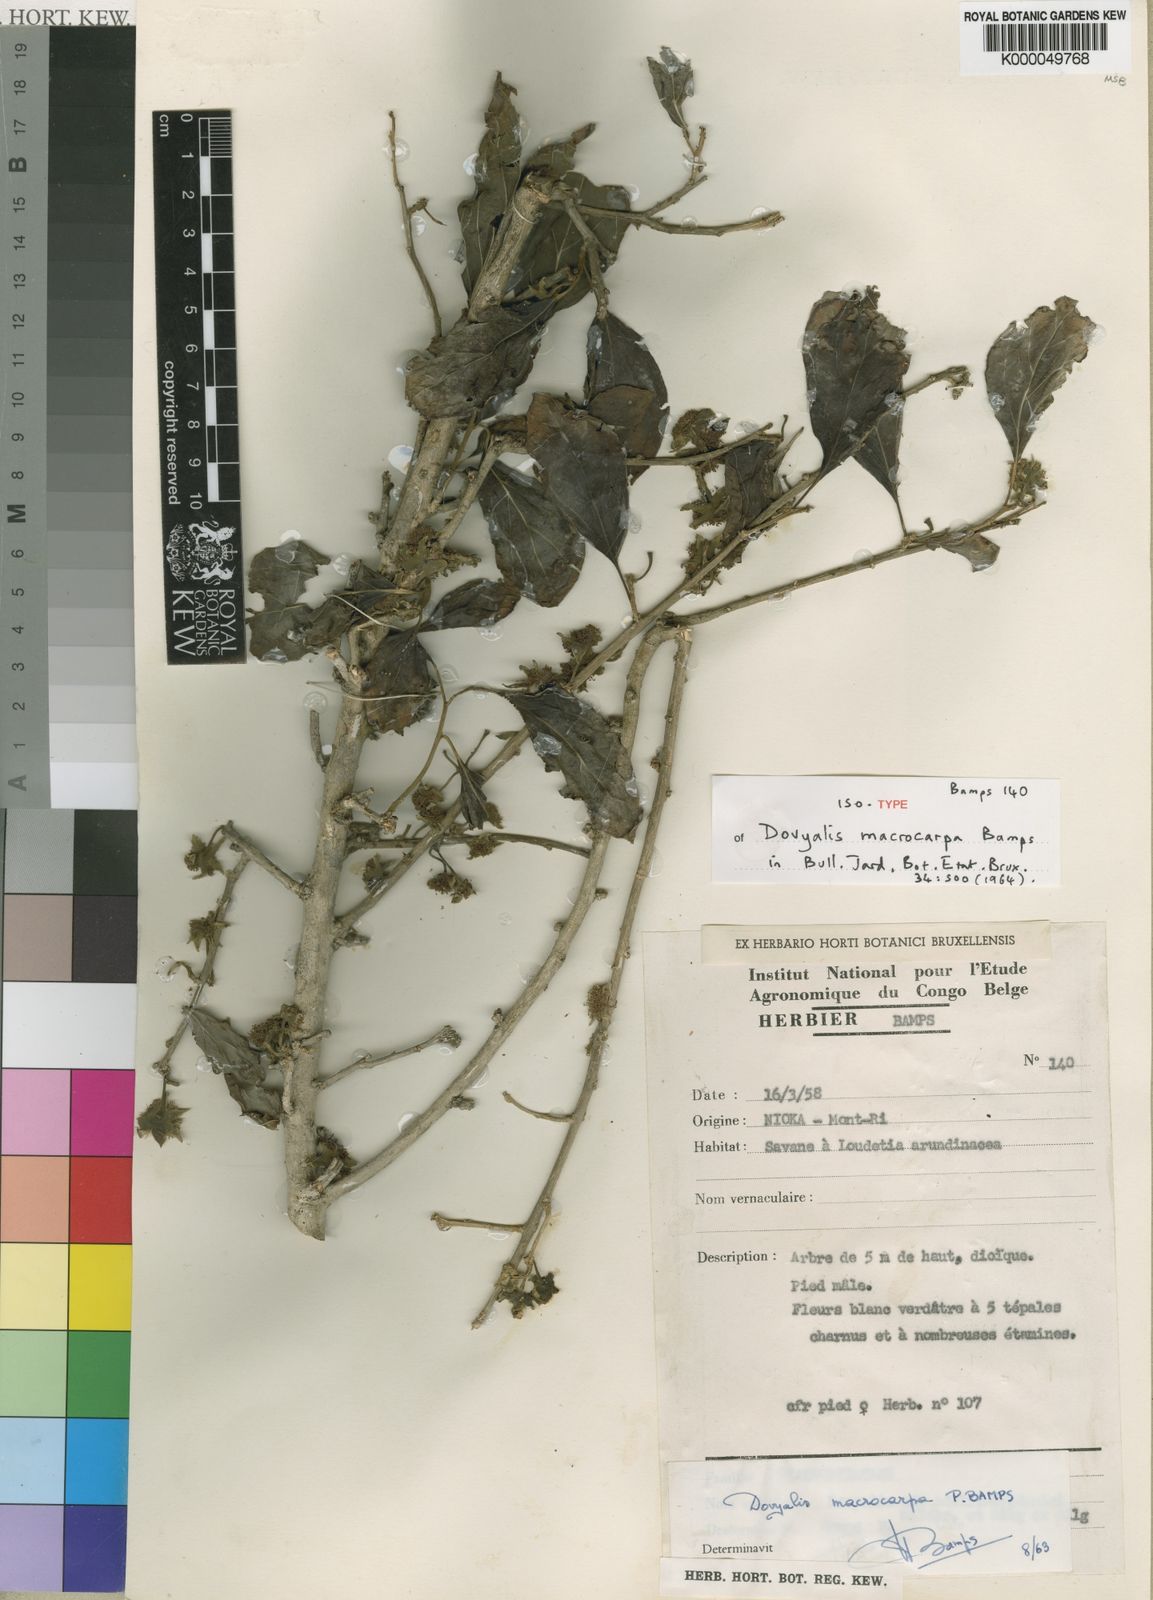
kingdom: Plantae
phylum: Tracheophyta
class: Magnoliopsida
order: Malpighiales
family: Salicaceae
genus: Dovyalis
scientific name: Dovyalis spinosissima
